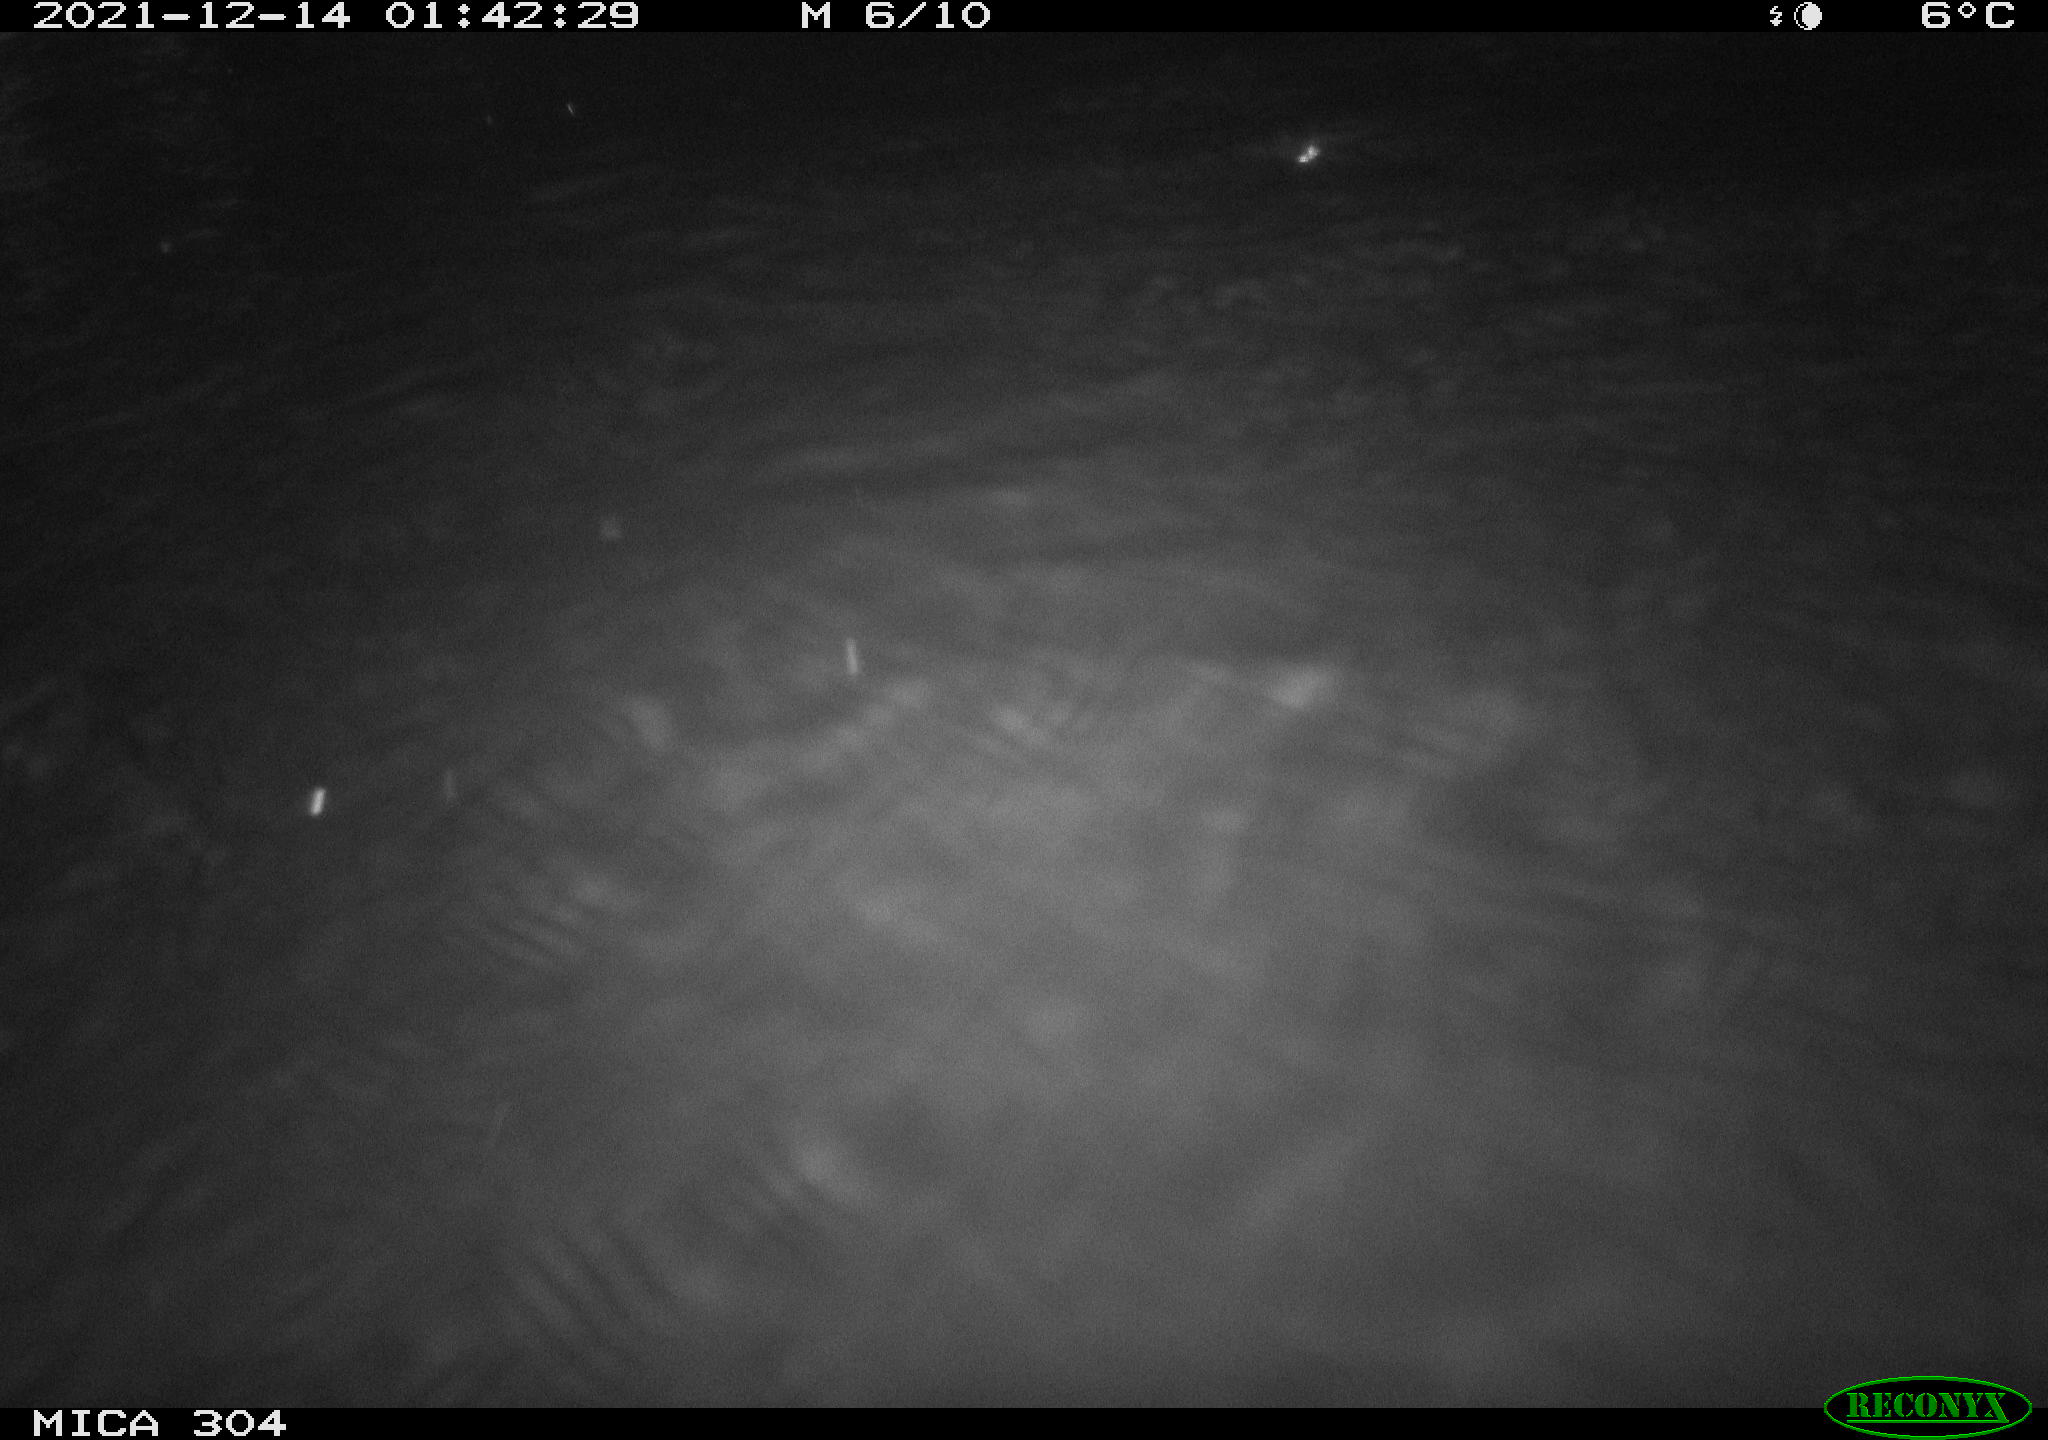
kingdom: Animalia
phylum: Chordata
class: Mammalia
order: Rodentia
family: Muridae
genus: Rattus
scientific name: Rattus norvegicus
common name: Brown rat
